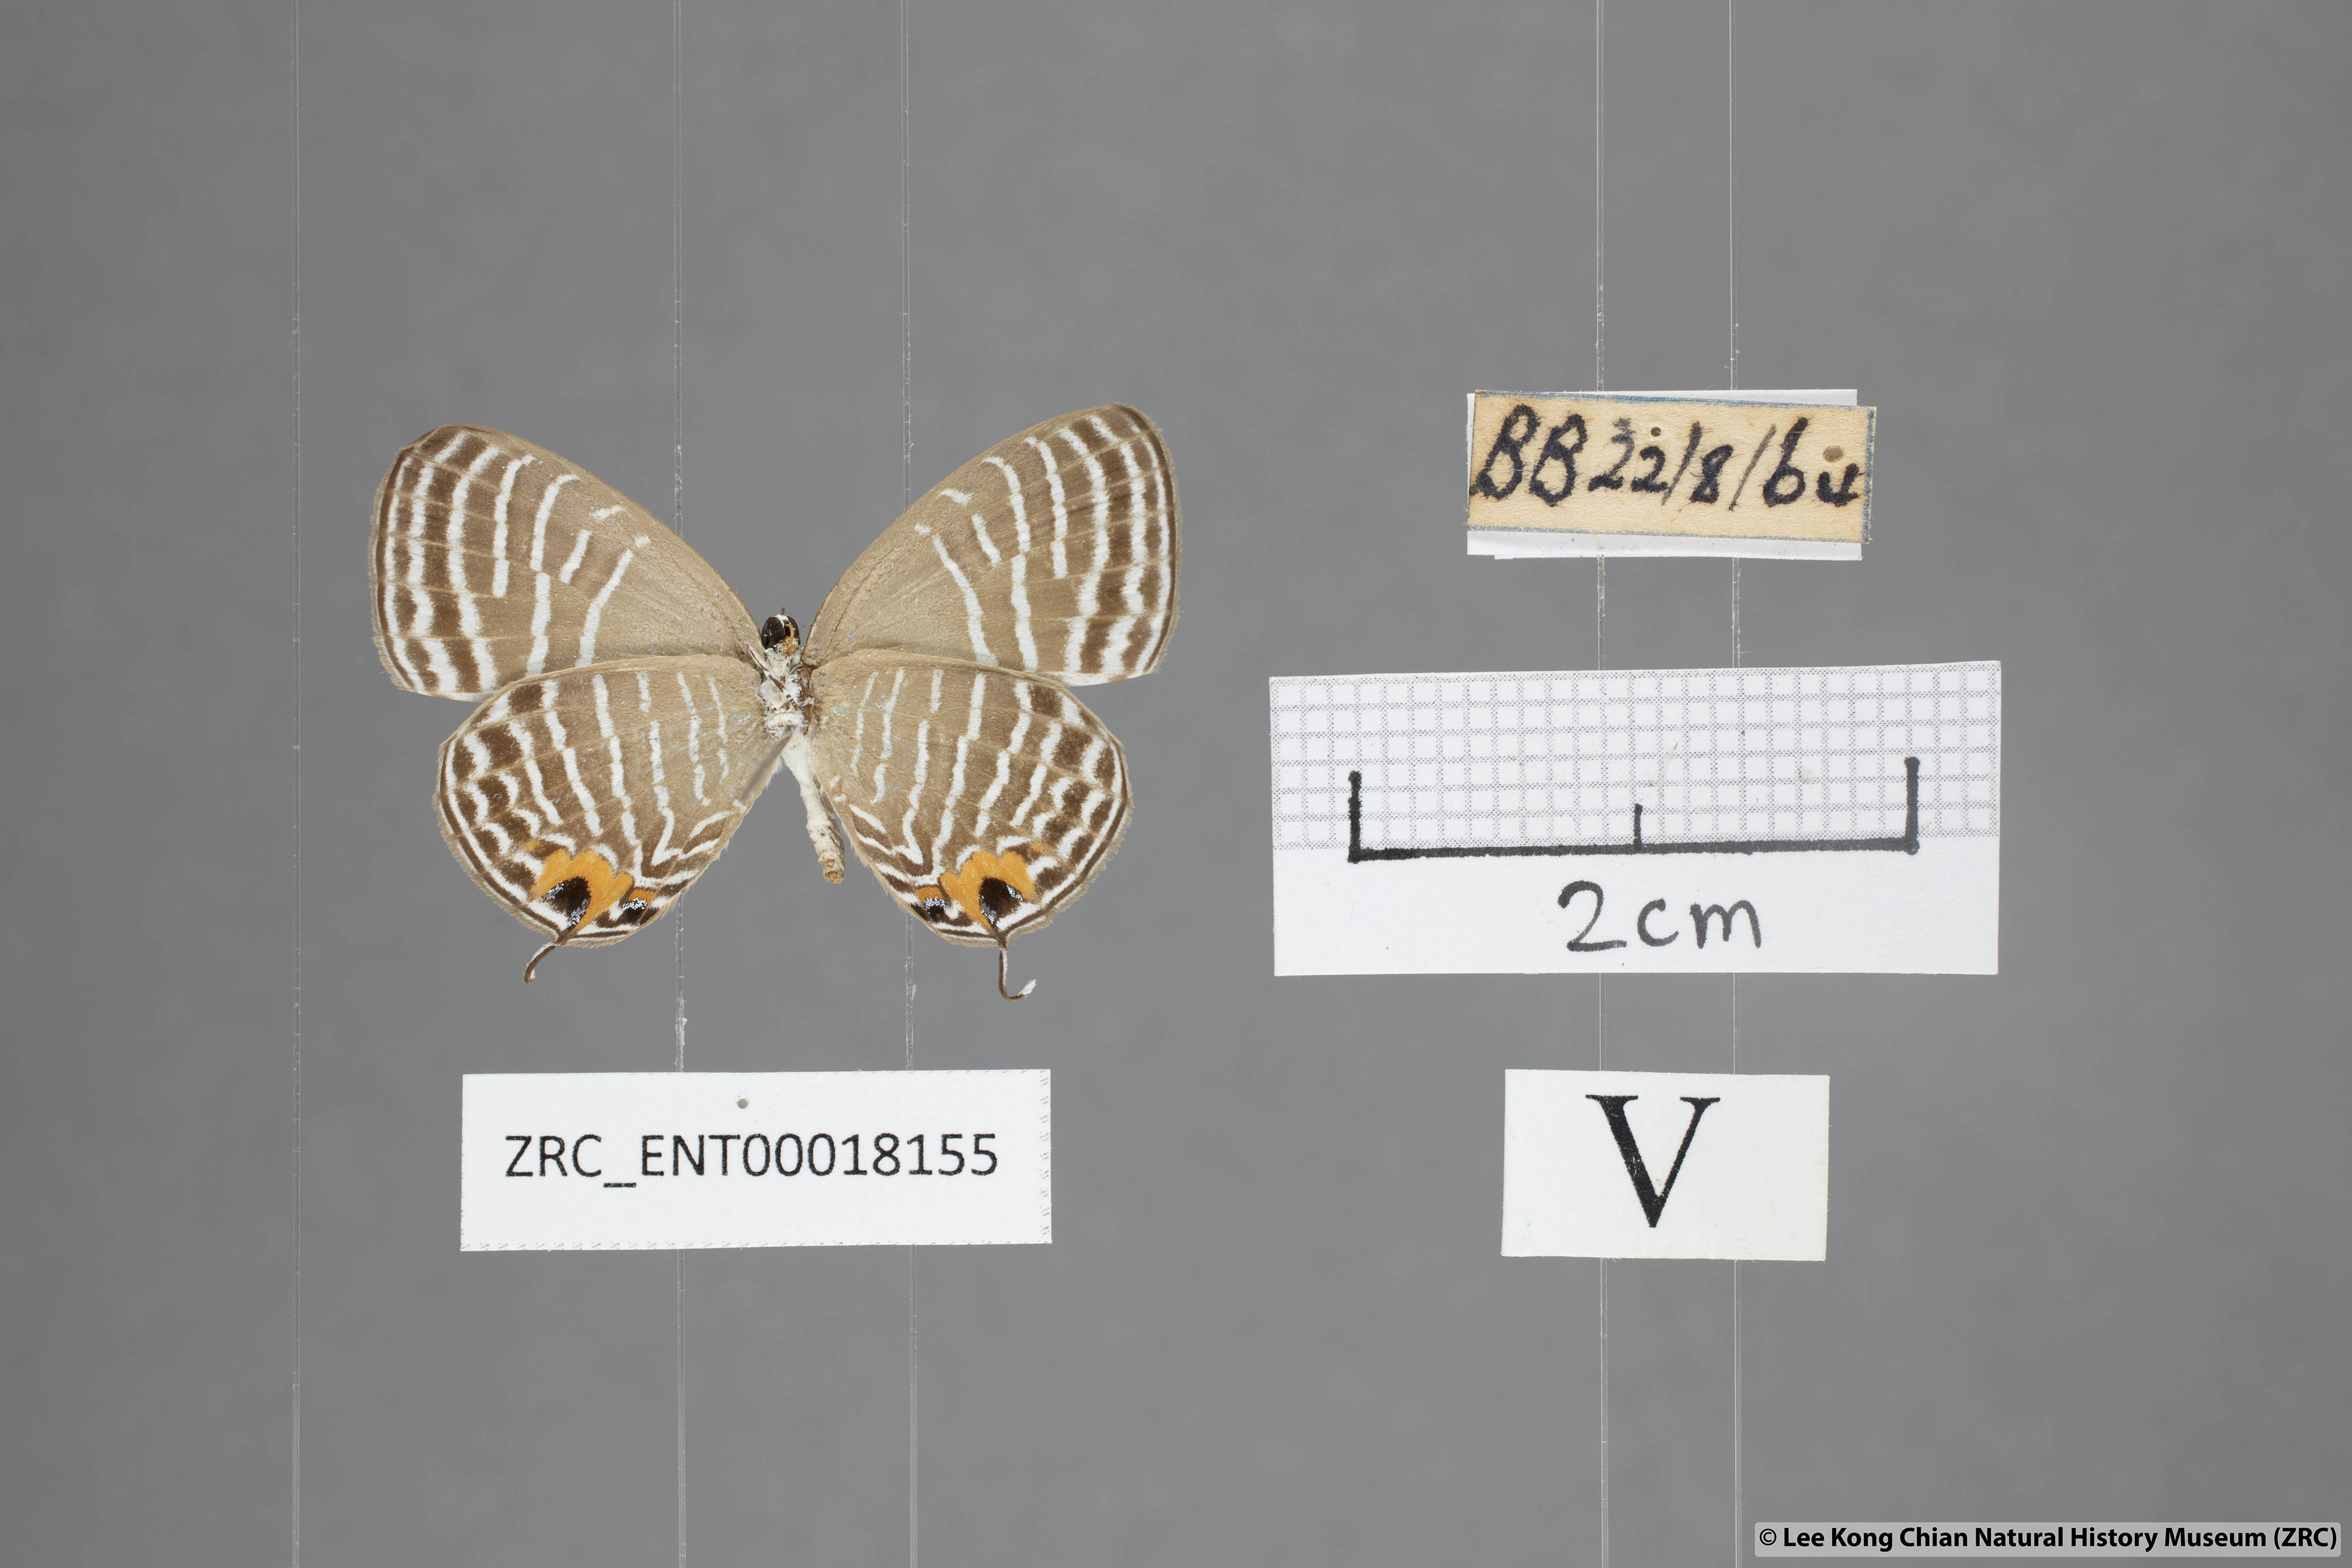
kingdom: Animalia
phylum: Arthropoda
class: Insecta
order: Lepidoptera
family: Lycaenidae
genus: Jamides
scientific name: Jamides parasaturata
